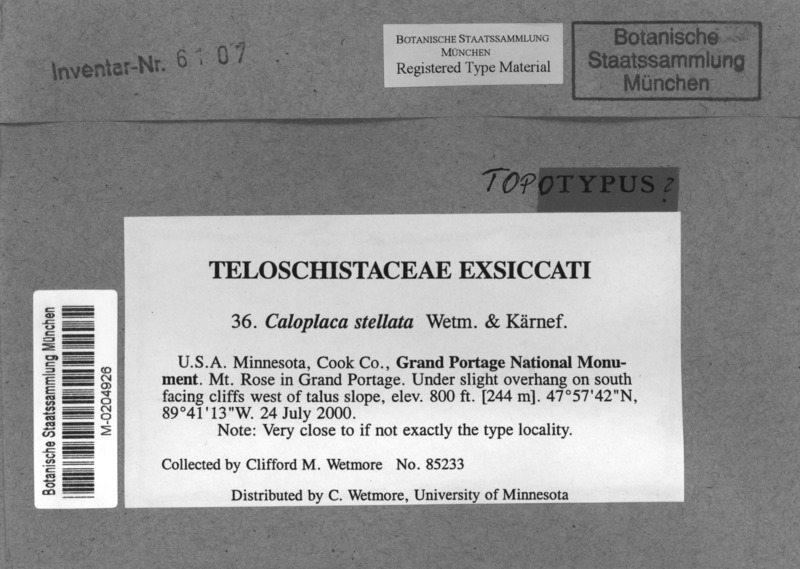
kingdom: Fungi
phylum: Ascomycota
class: Lecanoromycetes
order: Teloschistales
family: Teloschistaceae
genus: Massjukiella
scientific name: Massjukiella stellata
